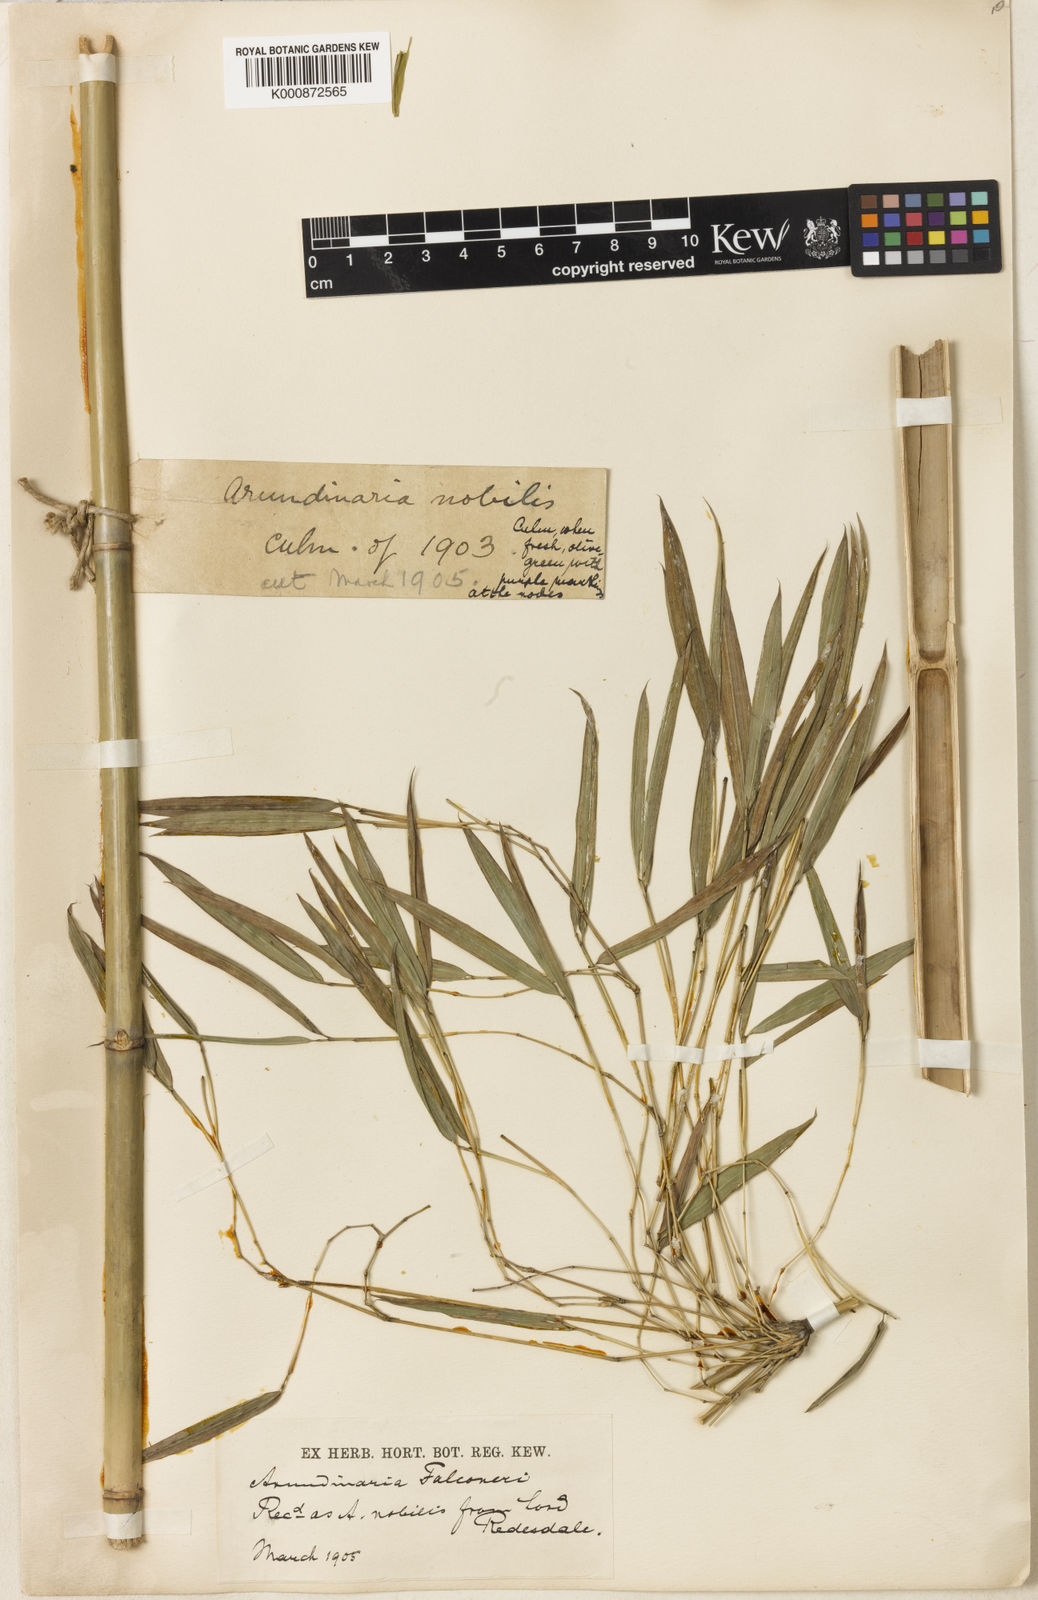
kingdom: Plantae
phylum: Tracheophyta
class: Liliopsida
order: Poales
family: Poaceae
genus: Himalayacalamus
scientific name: Himalayacalamus falconeri
